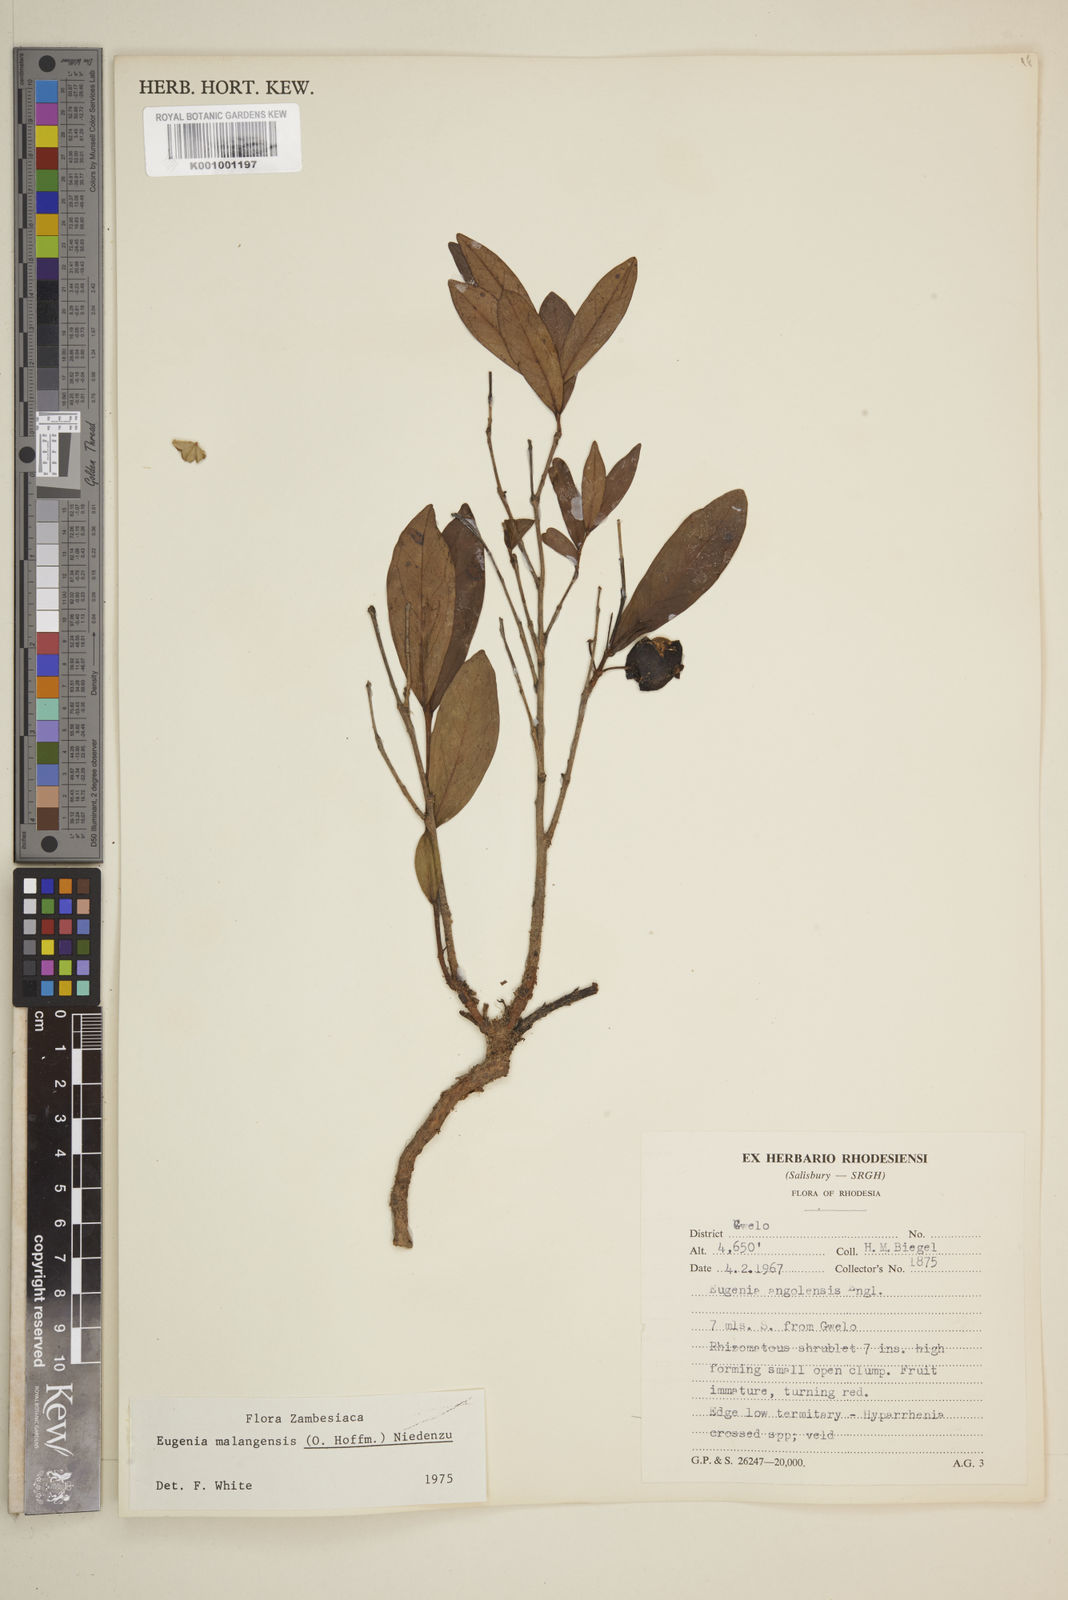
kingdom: Plantae
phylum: Tracheophyta
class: Magnoliopsida
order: Myrtales
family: Myrtaceae
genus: Eugenia
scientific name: Eugenia malangensis
